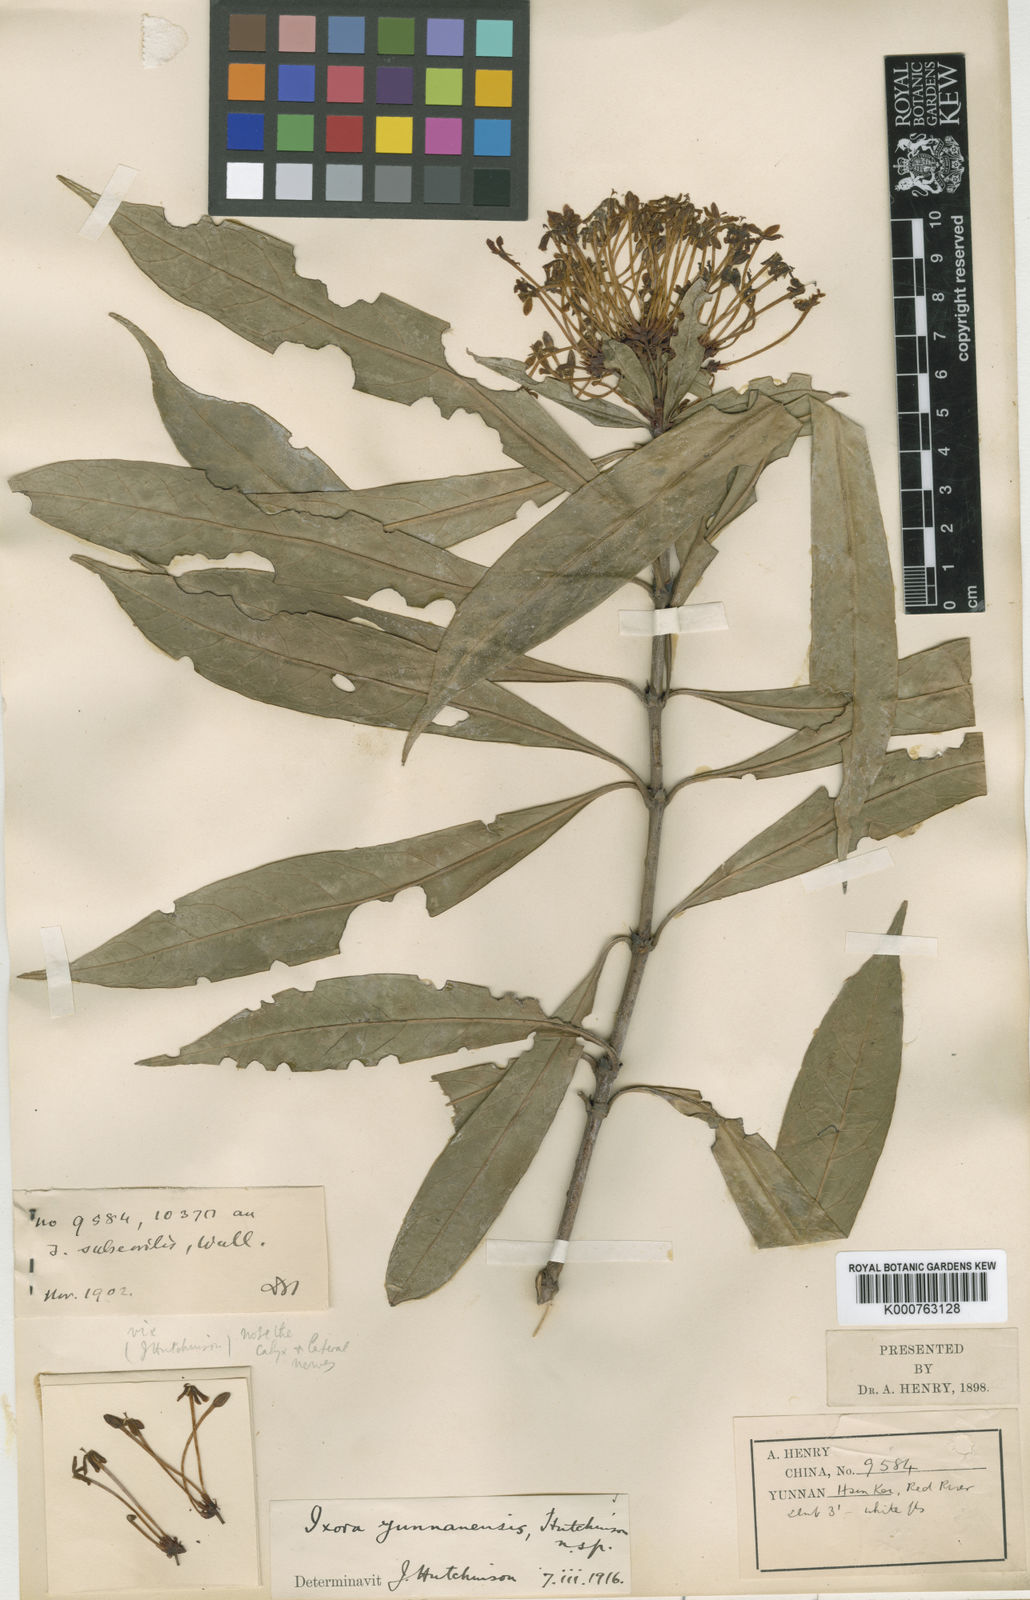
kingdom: Plantae
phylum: Tracheophyta
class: Magnoliopsida
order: Gentianales
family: Rubiaceae
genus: Ixora
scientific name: Ixora yunnanensis
